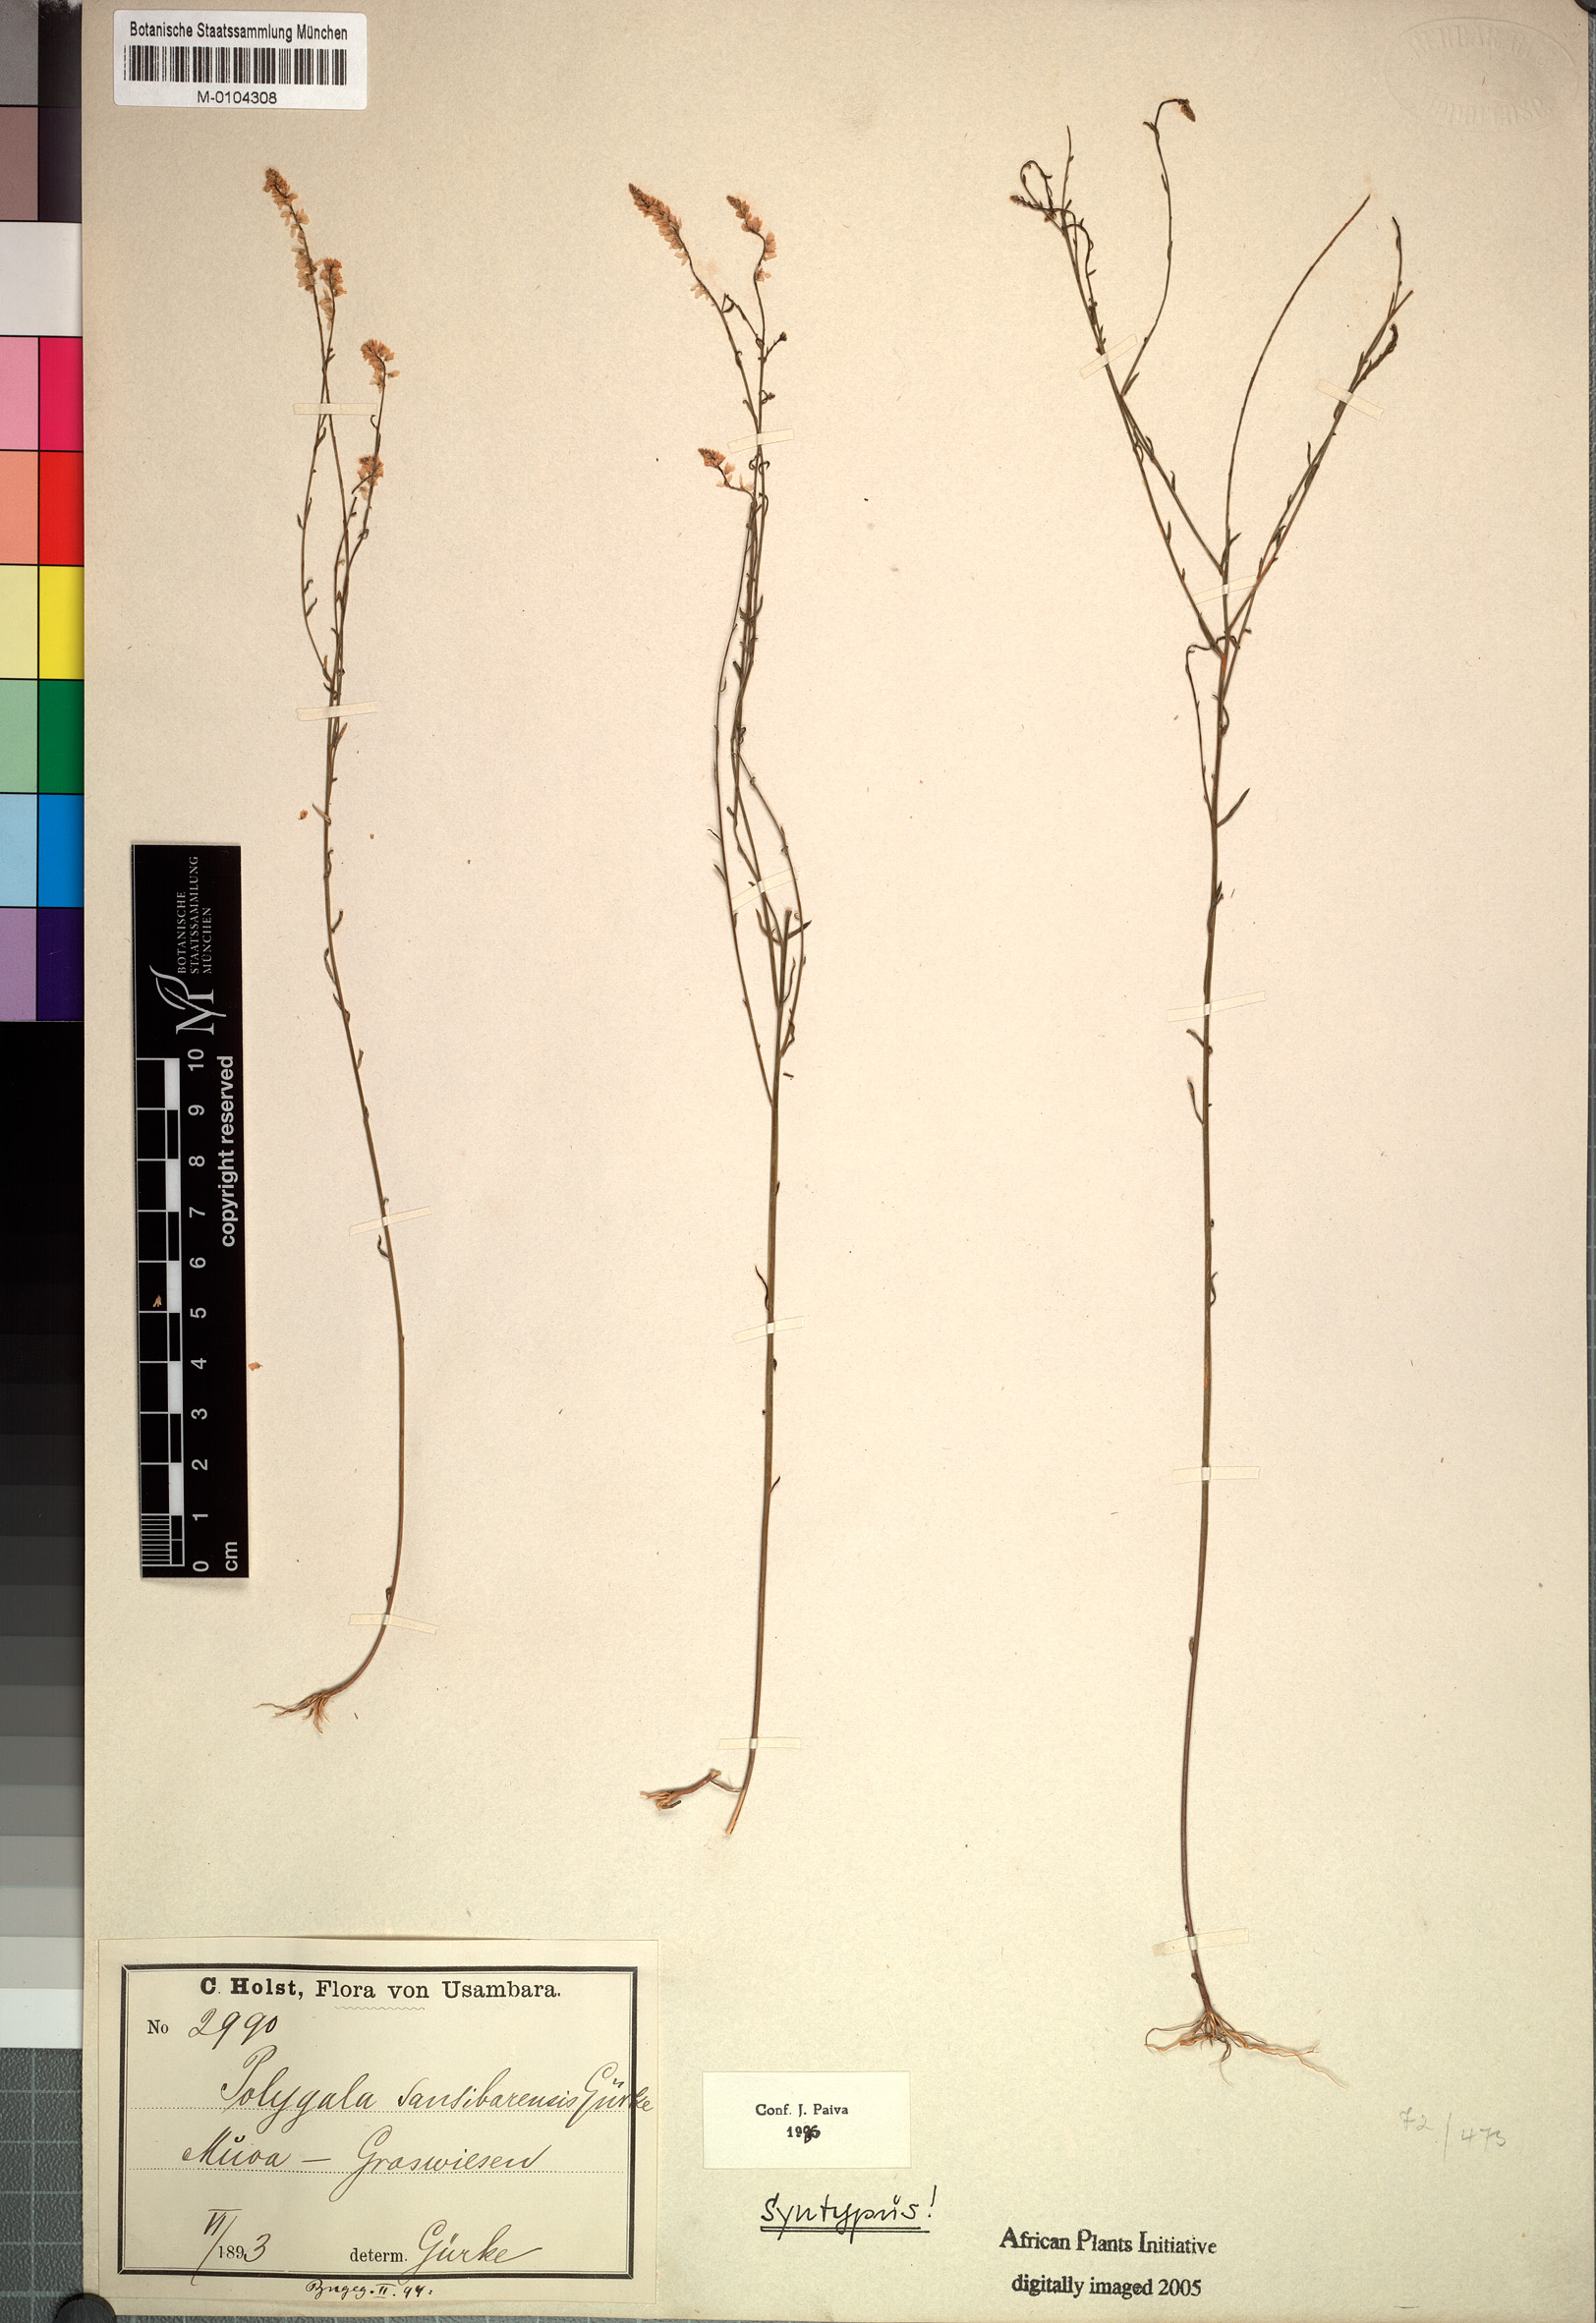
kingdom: Plantae
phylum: Tracheophyta
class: Magnoliopsida
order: Fabales
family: Polygalaceae
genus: Polygala
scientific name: Polygala sansibarensis
